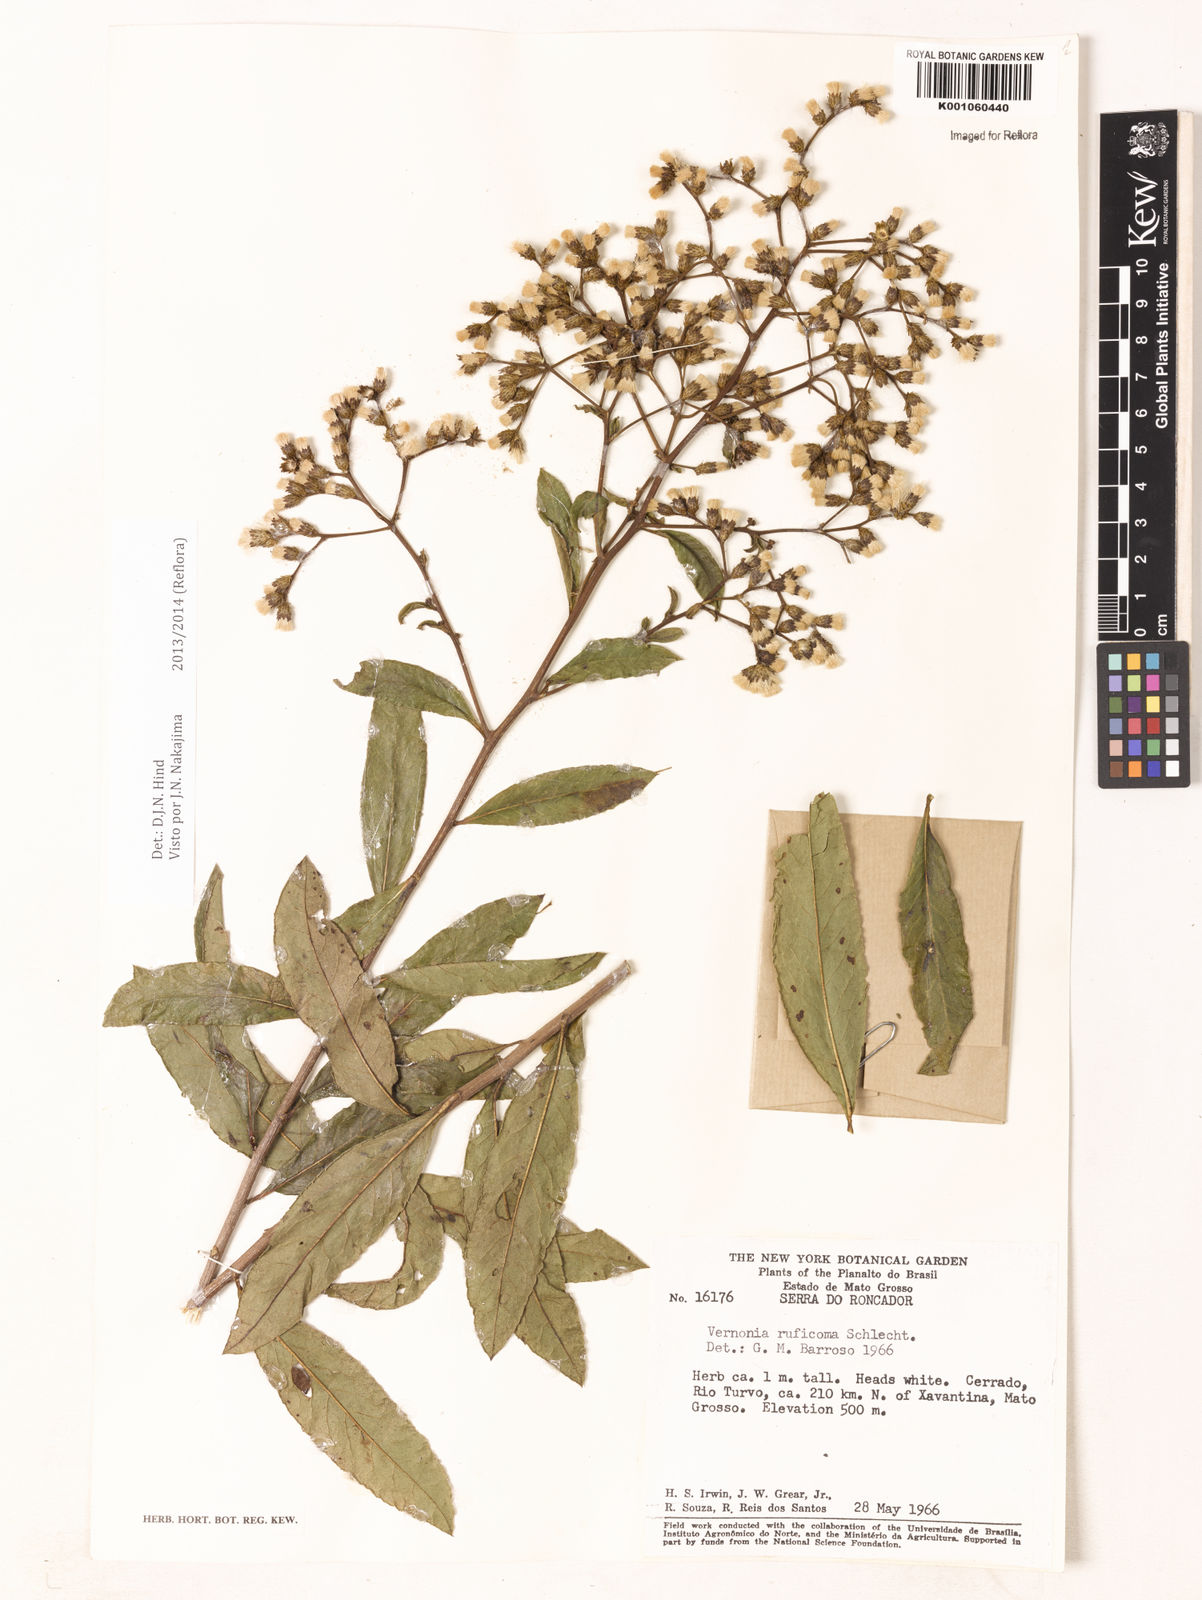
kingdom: Plantae
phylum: Tracheophyta
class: Magnoliopsida
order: Asterales
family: Asteraceae
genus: Vernonia
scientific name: Vernonia
